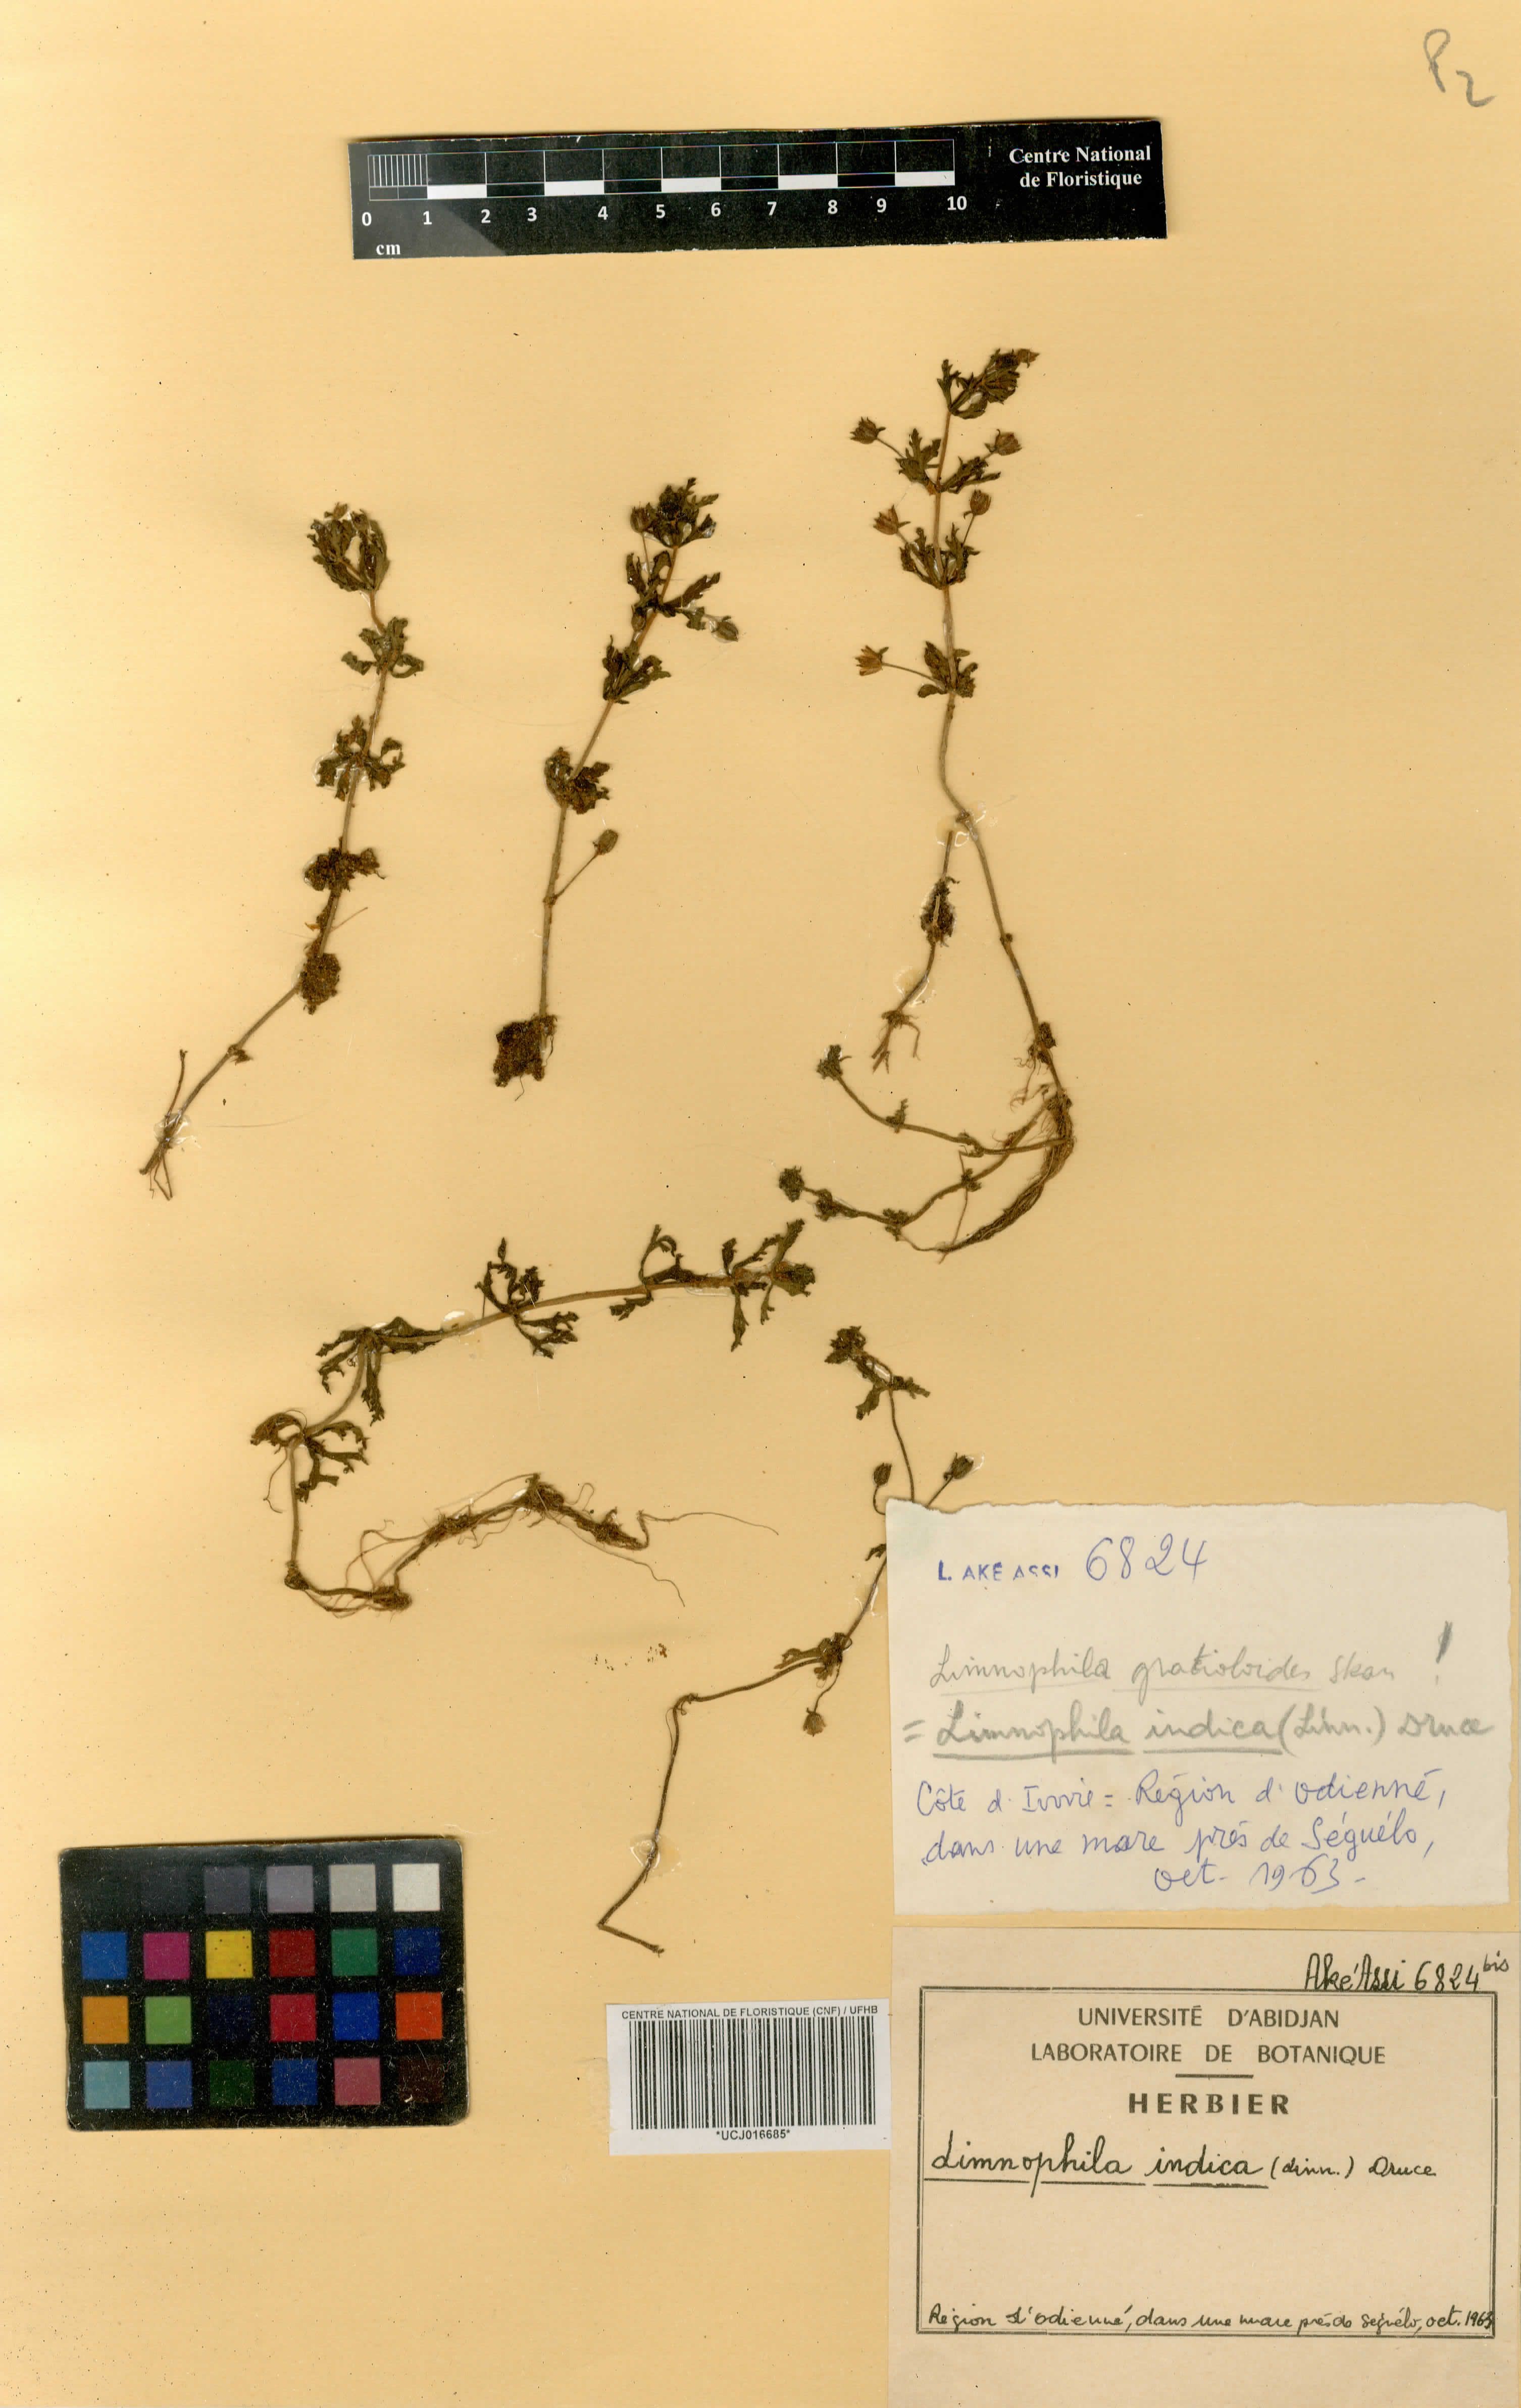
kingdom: Plantae
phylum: Tracheophyta
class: Magnoliopsida
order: Lamiales
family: Plantaginaceae
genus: Limnophila
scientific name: Limnophila indica
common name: Indian marshweed
